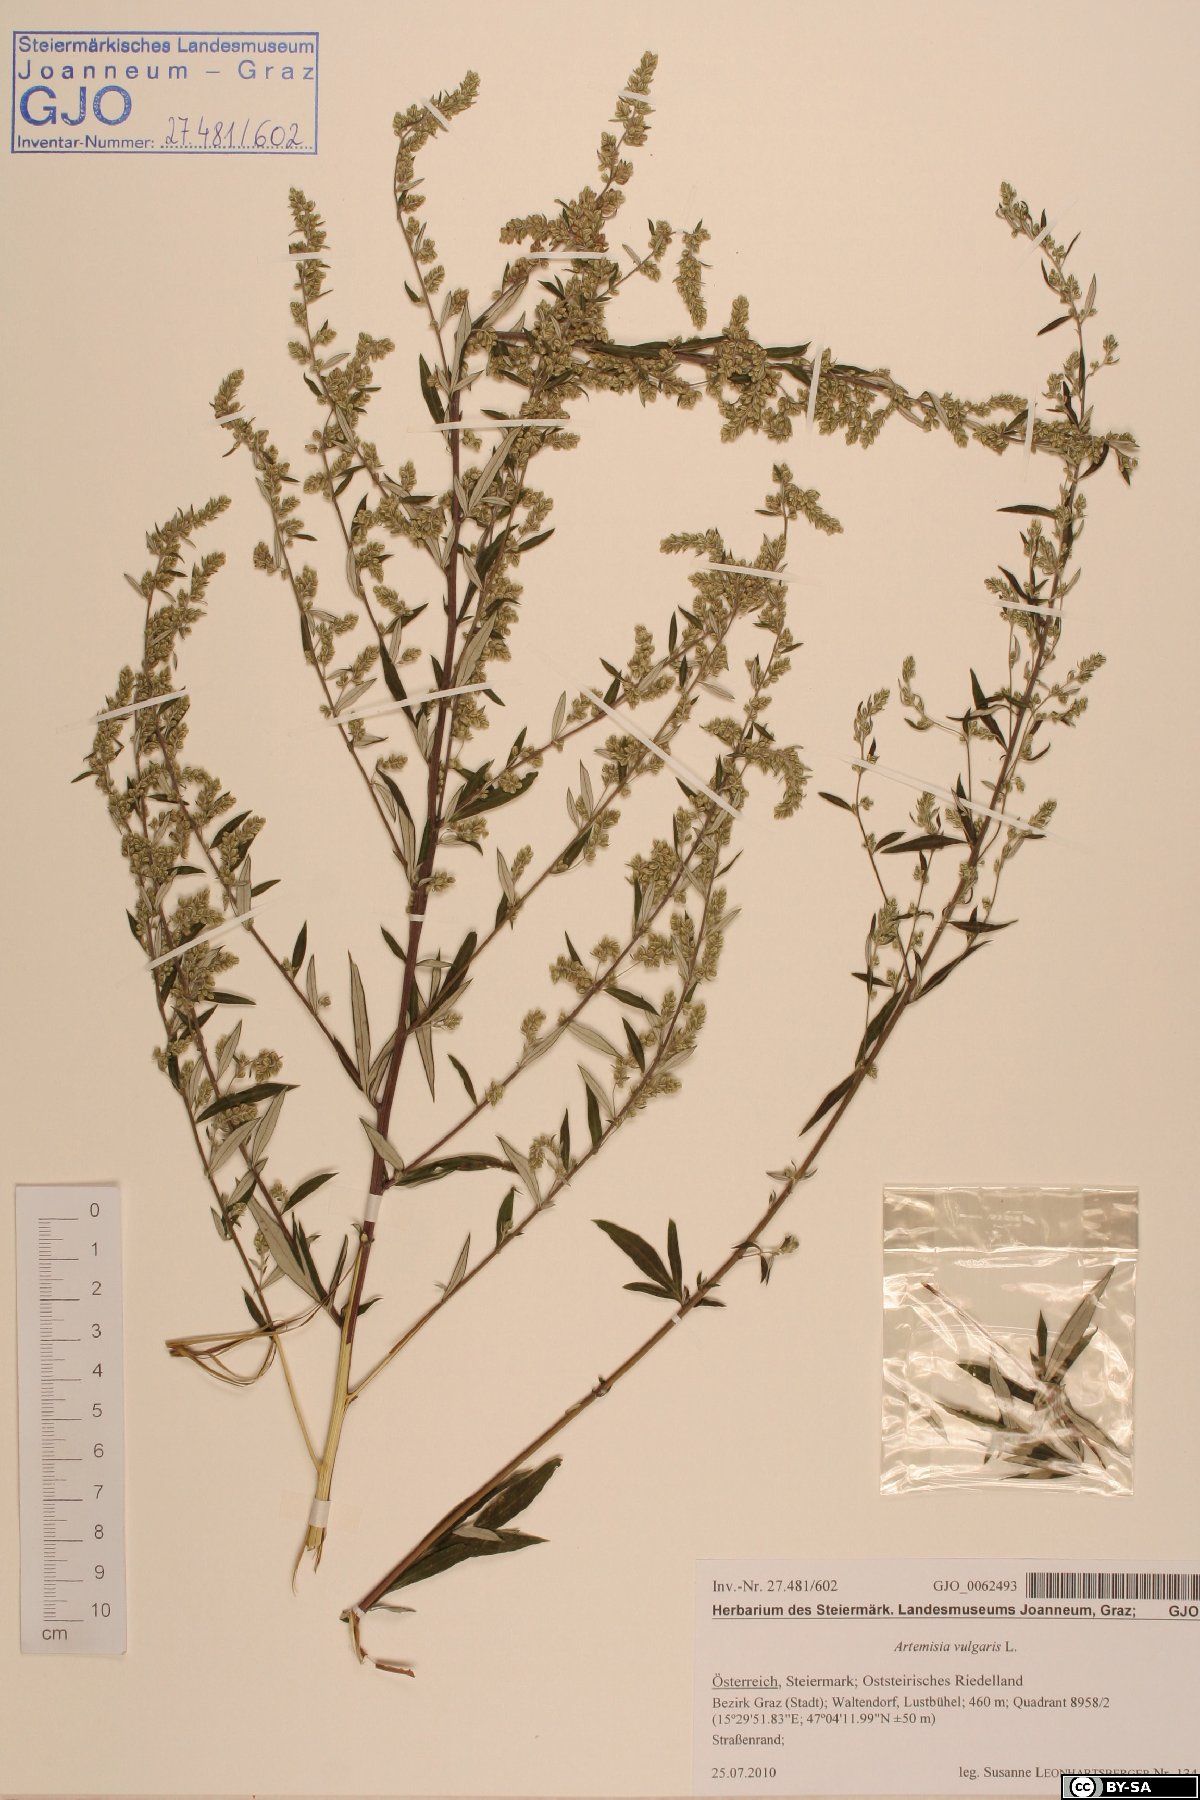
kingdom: Plantae
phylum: Tracheophyta
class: Magnoliopsida
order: Asterales
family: Asteraceae
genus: Artemisia
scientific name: Artemisia vulgaris
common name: Mugwort
